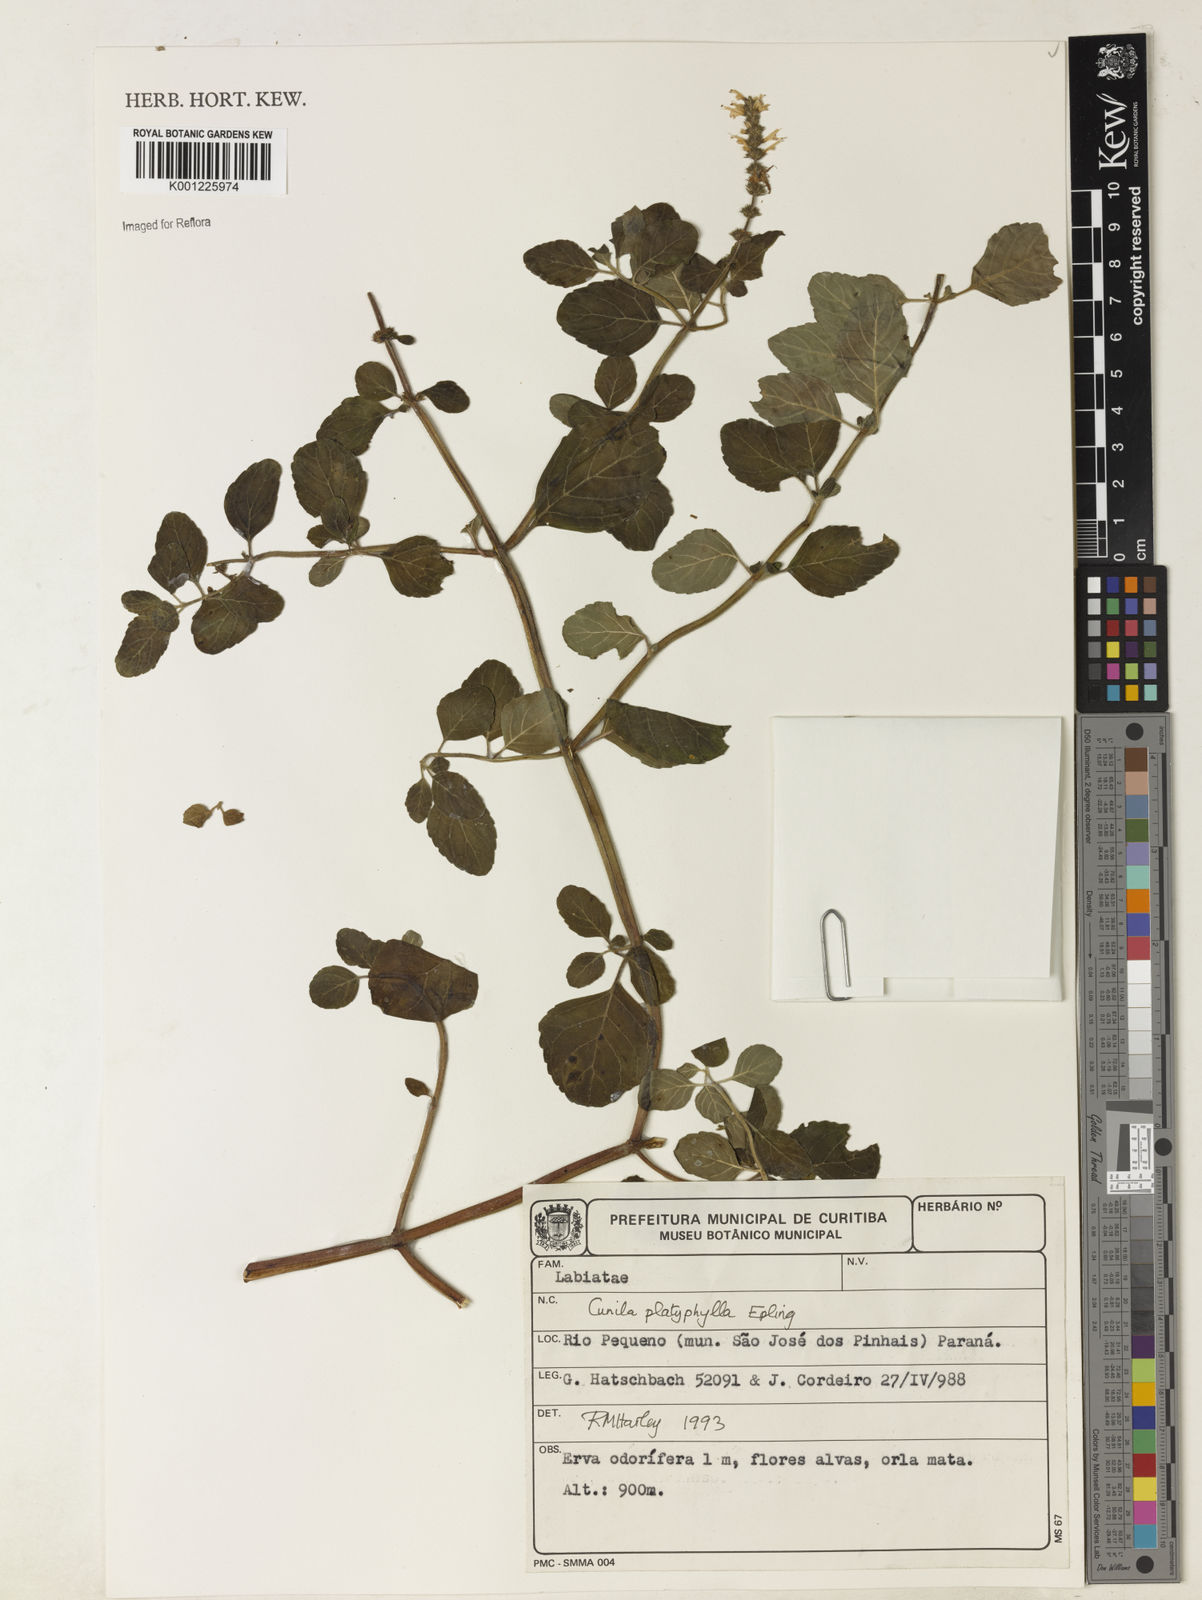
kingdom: Plantae
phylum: Tracheophyta
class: Magnoliopsida
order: Lamiales
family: Lamiaceae
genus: Cunila
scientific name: Cunila platyphylla
